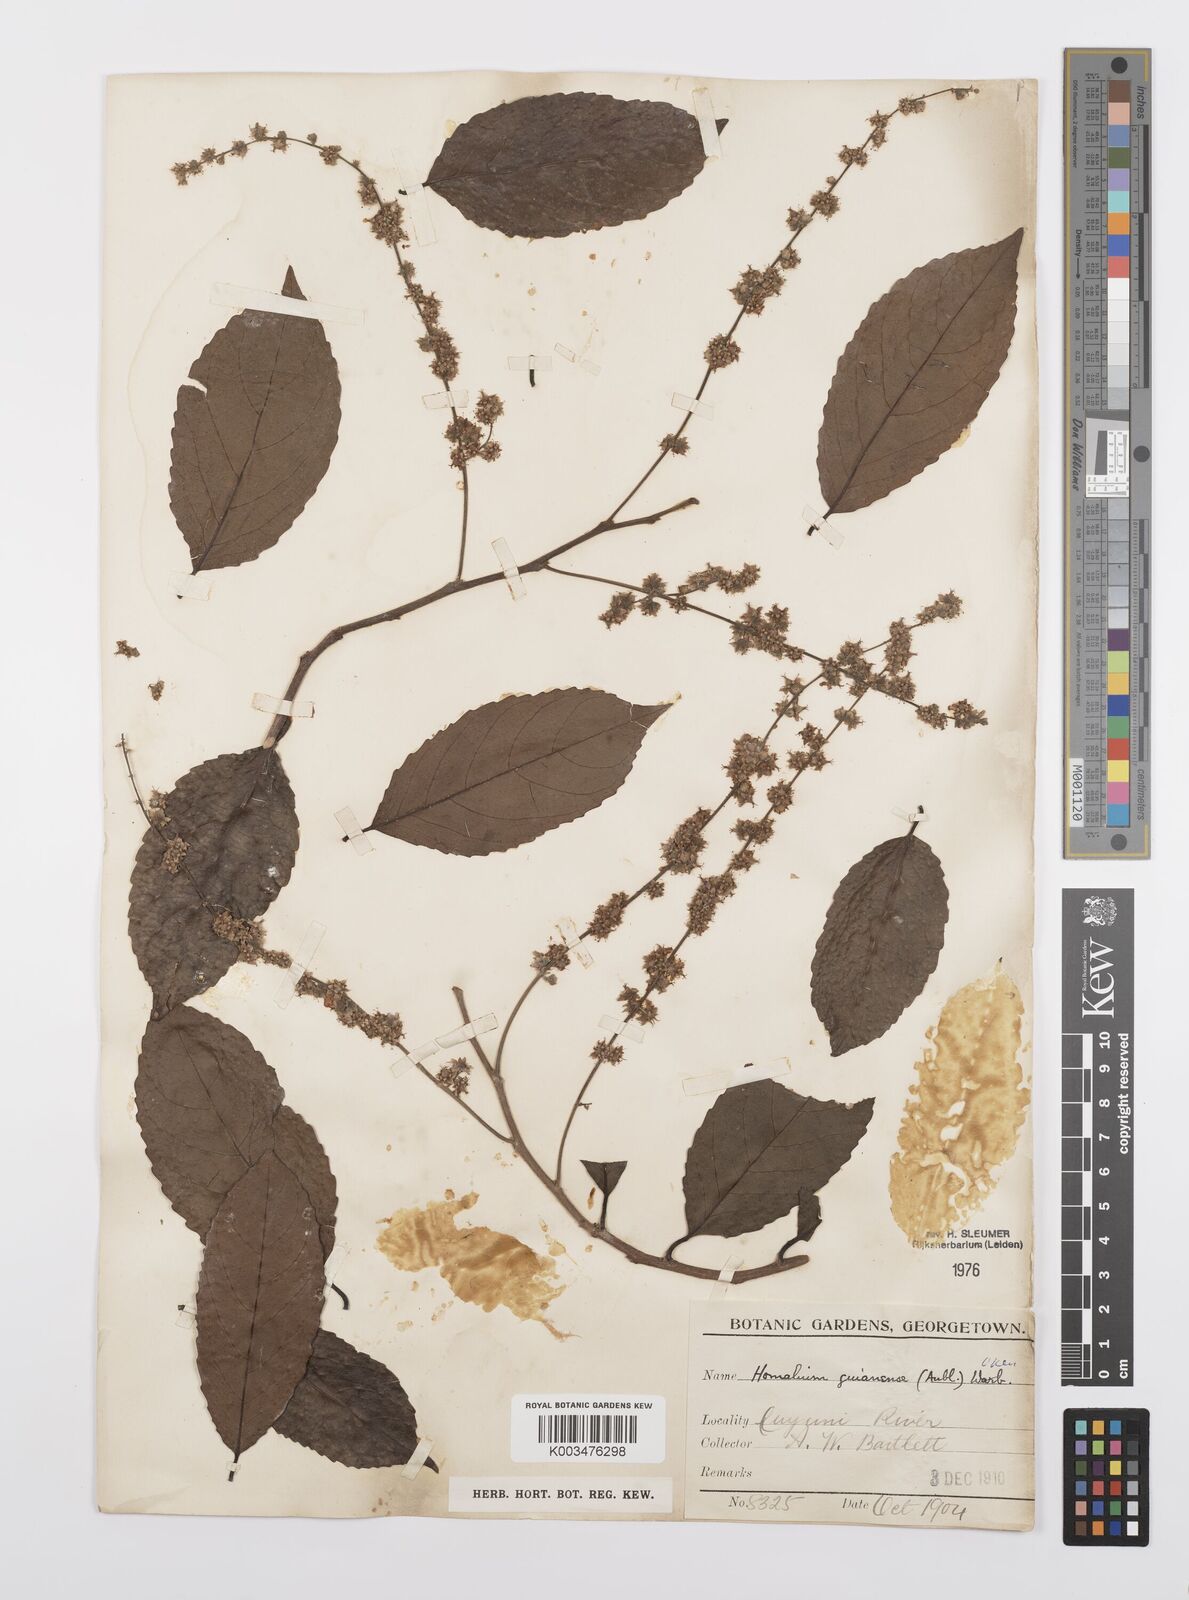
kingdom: Plantae
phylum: Tracheophyta
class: Magnoliopsida
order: Malpighiales
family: Salicaceae
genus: Homalium
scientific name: Homalium guianense
